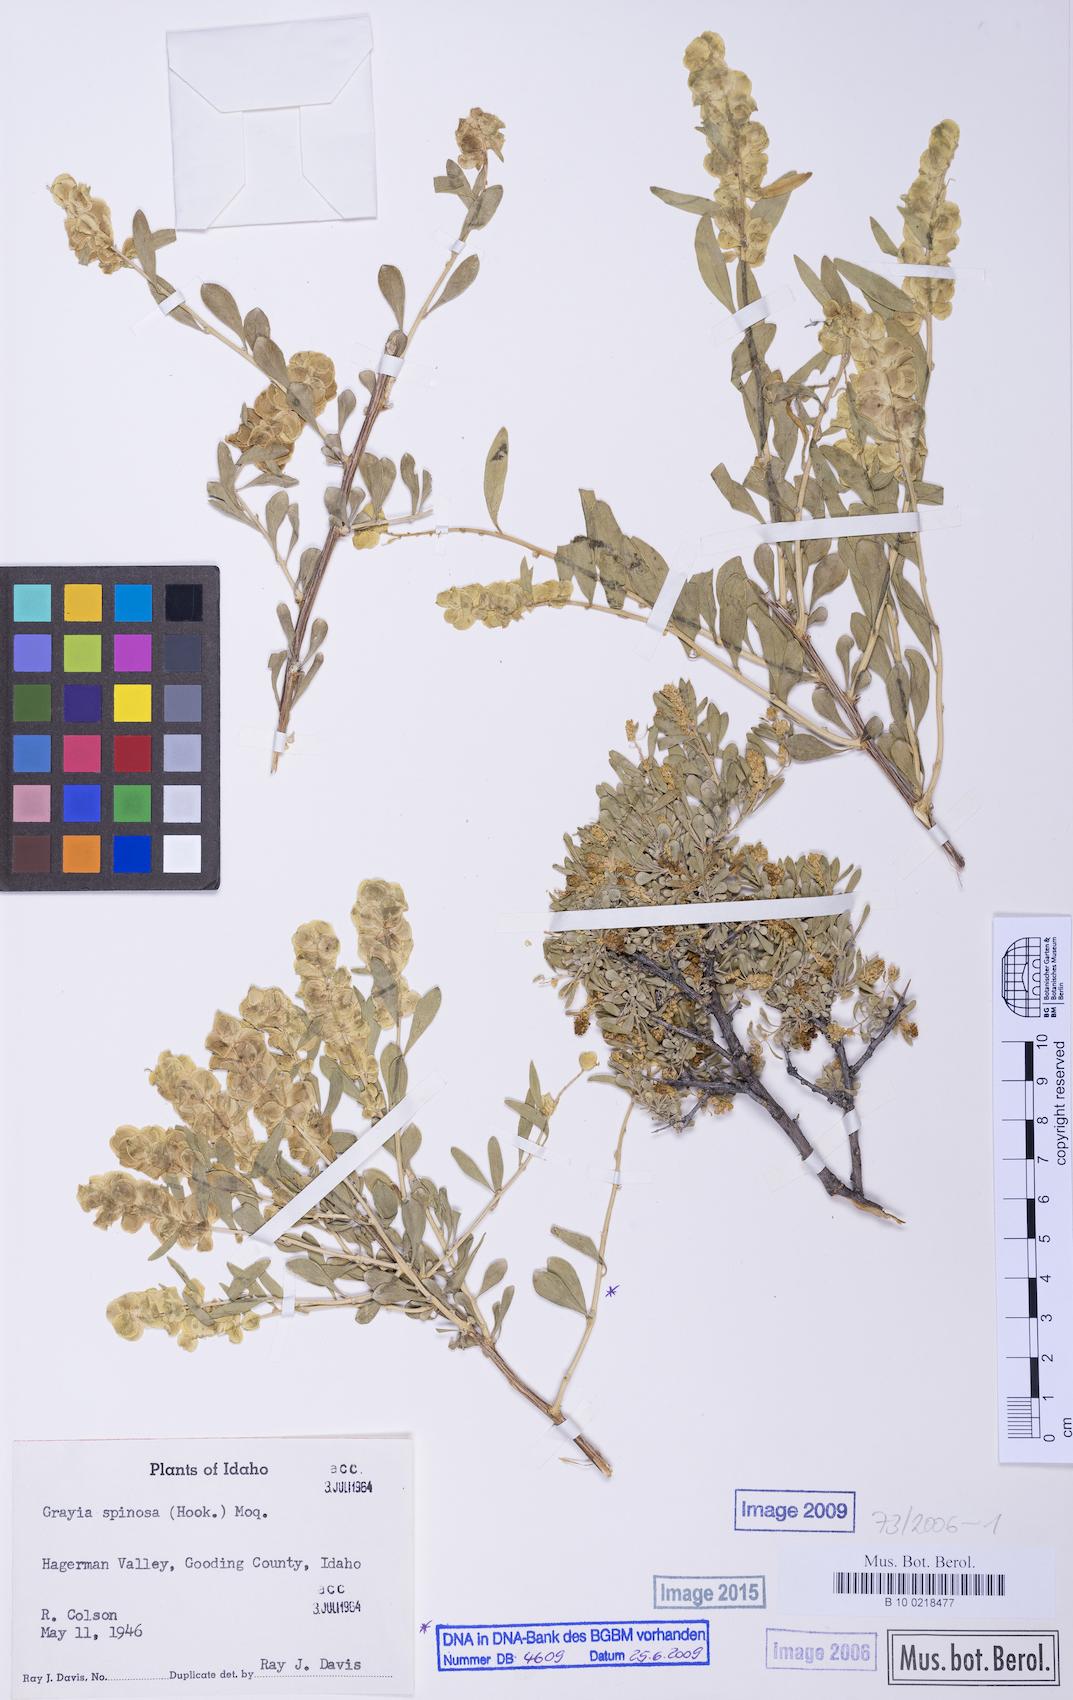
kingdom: Plantae
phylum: Tracheophyta
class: Magnoliopsida
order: Caryophyllales
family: Amaranthaceae
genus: Grayia
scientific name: Grayia spinosa
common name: Spiny hopsage
